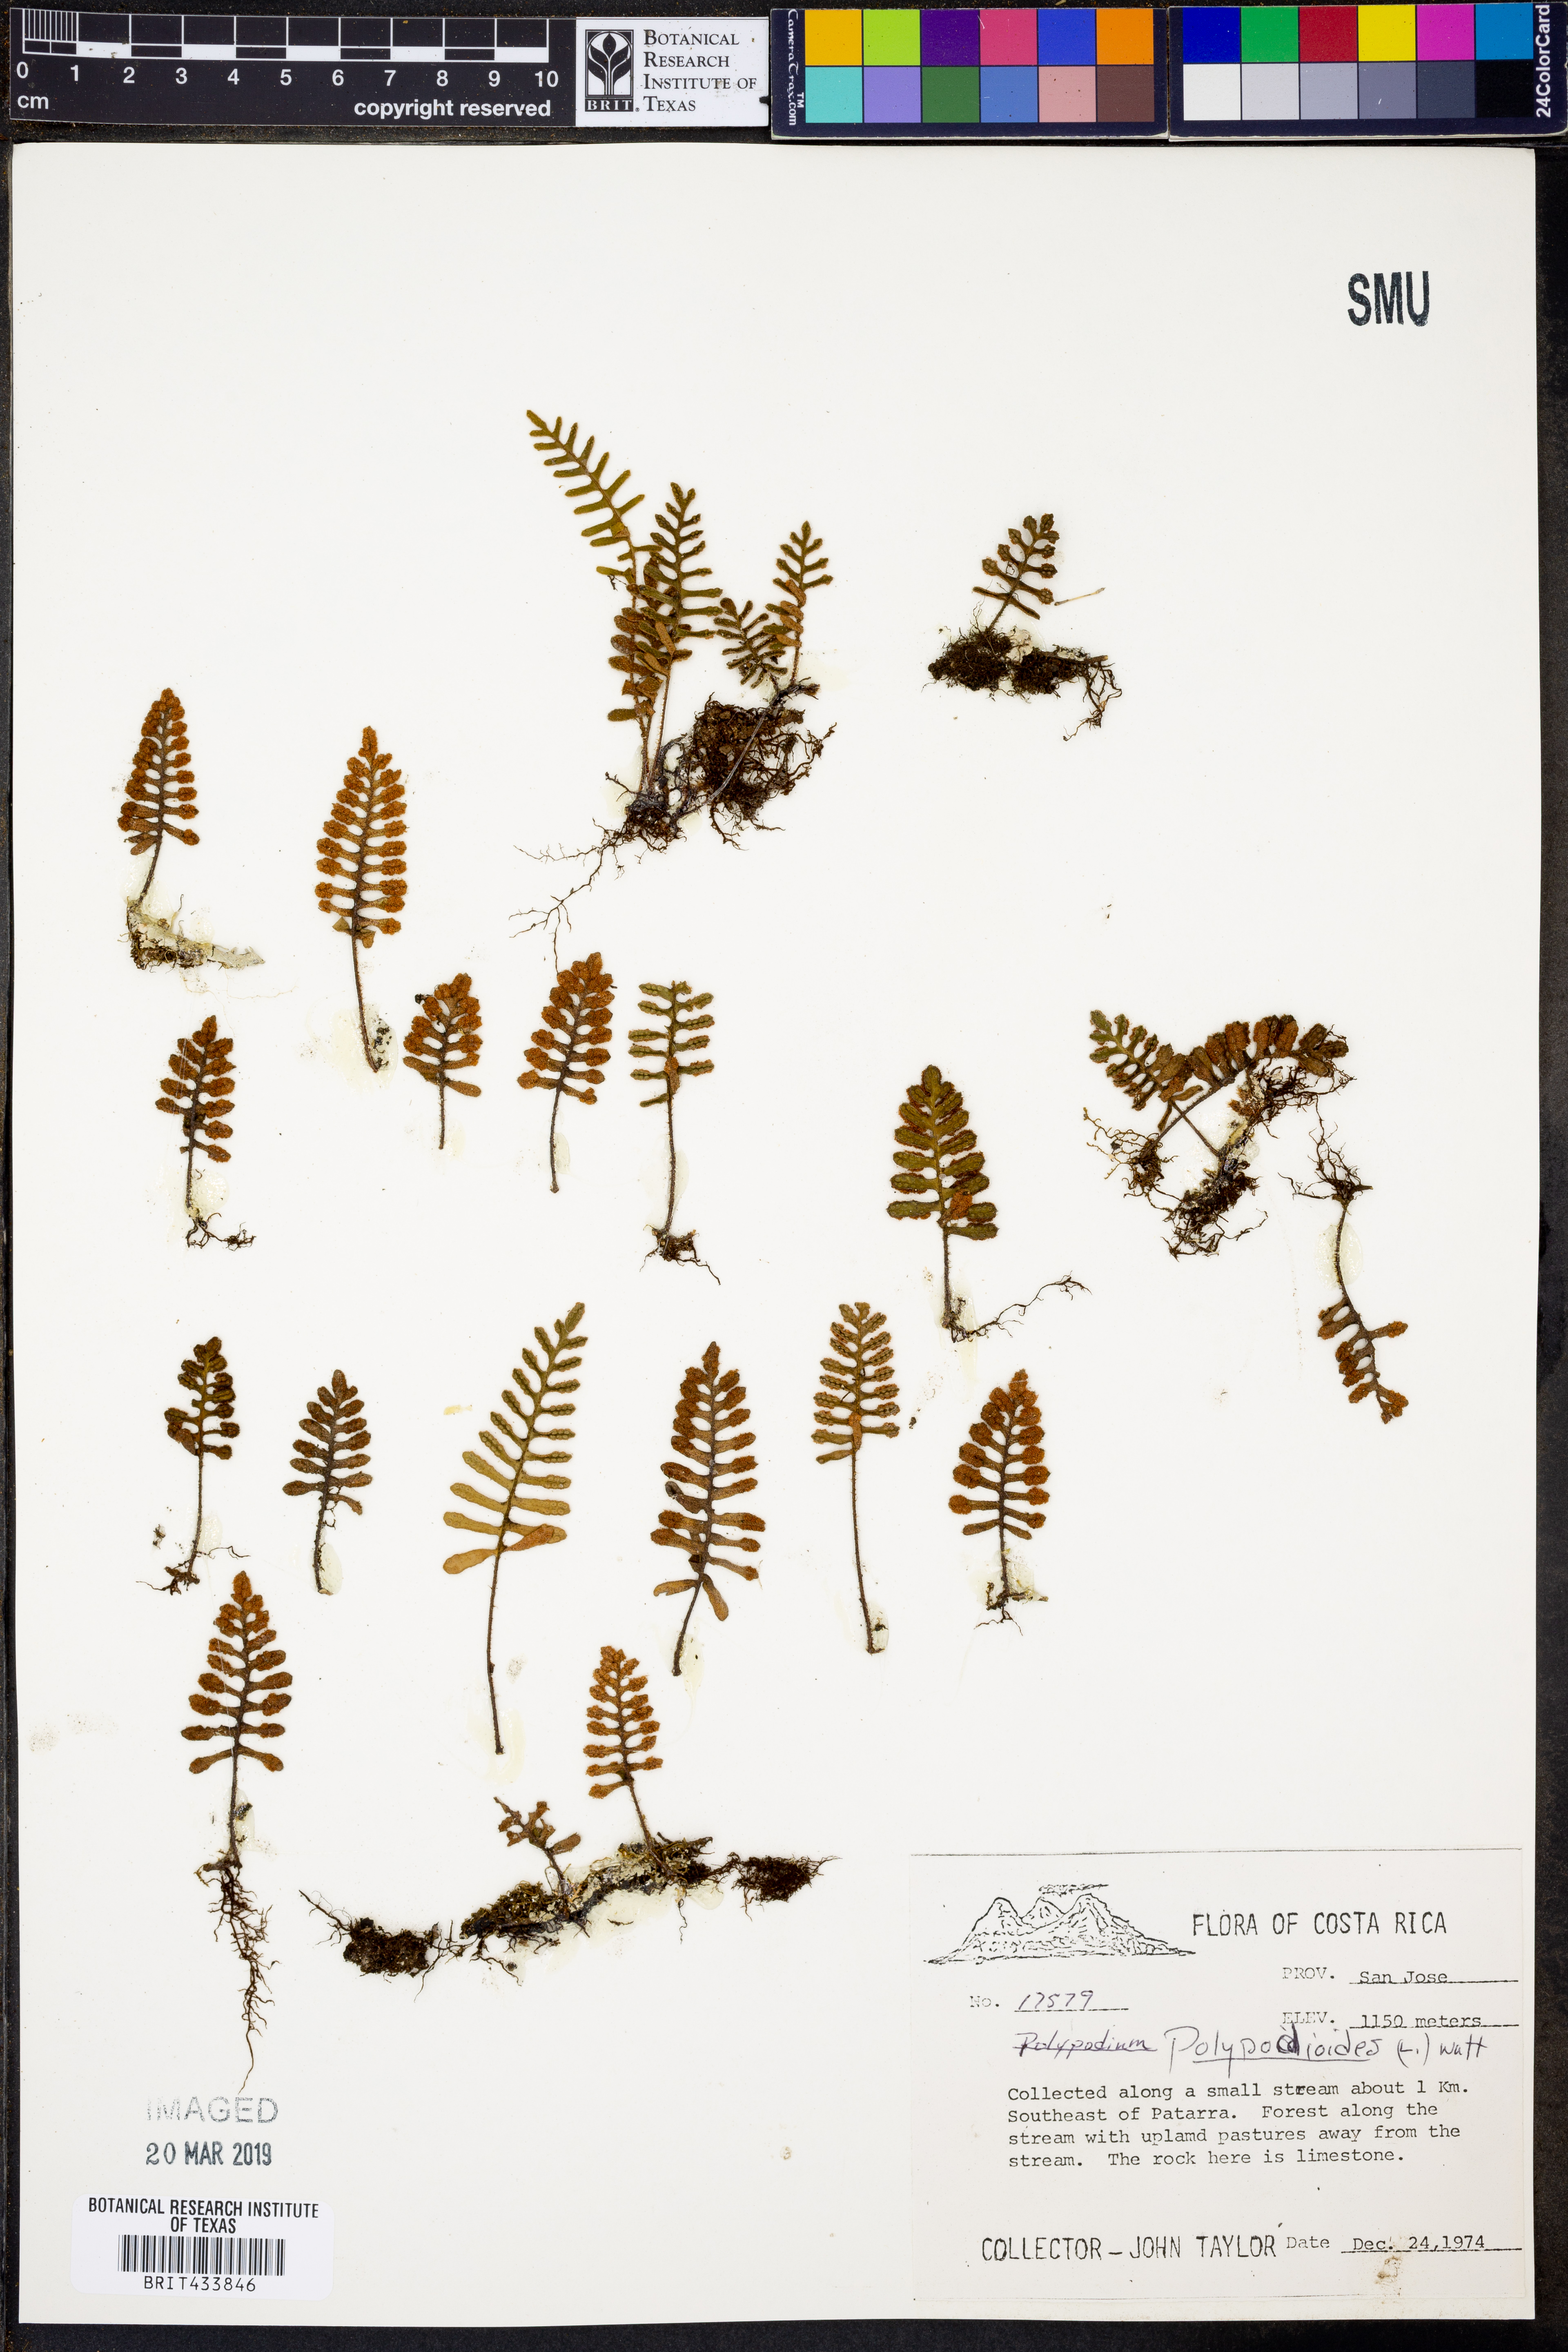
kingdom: Plantae
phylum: Tracheophyta
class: Polypodiopsida
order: Polypodiales
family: Polypodiaceae
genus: Pleopeltis
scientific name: Pleopeltis polypodioides
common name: Resurrection fern
